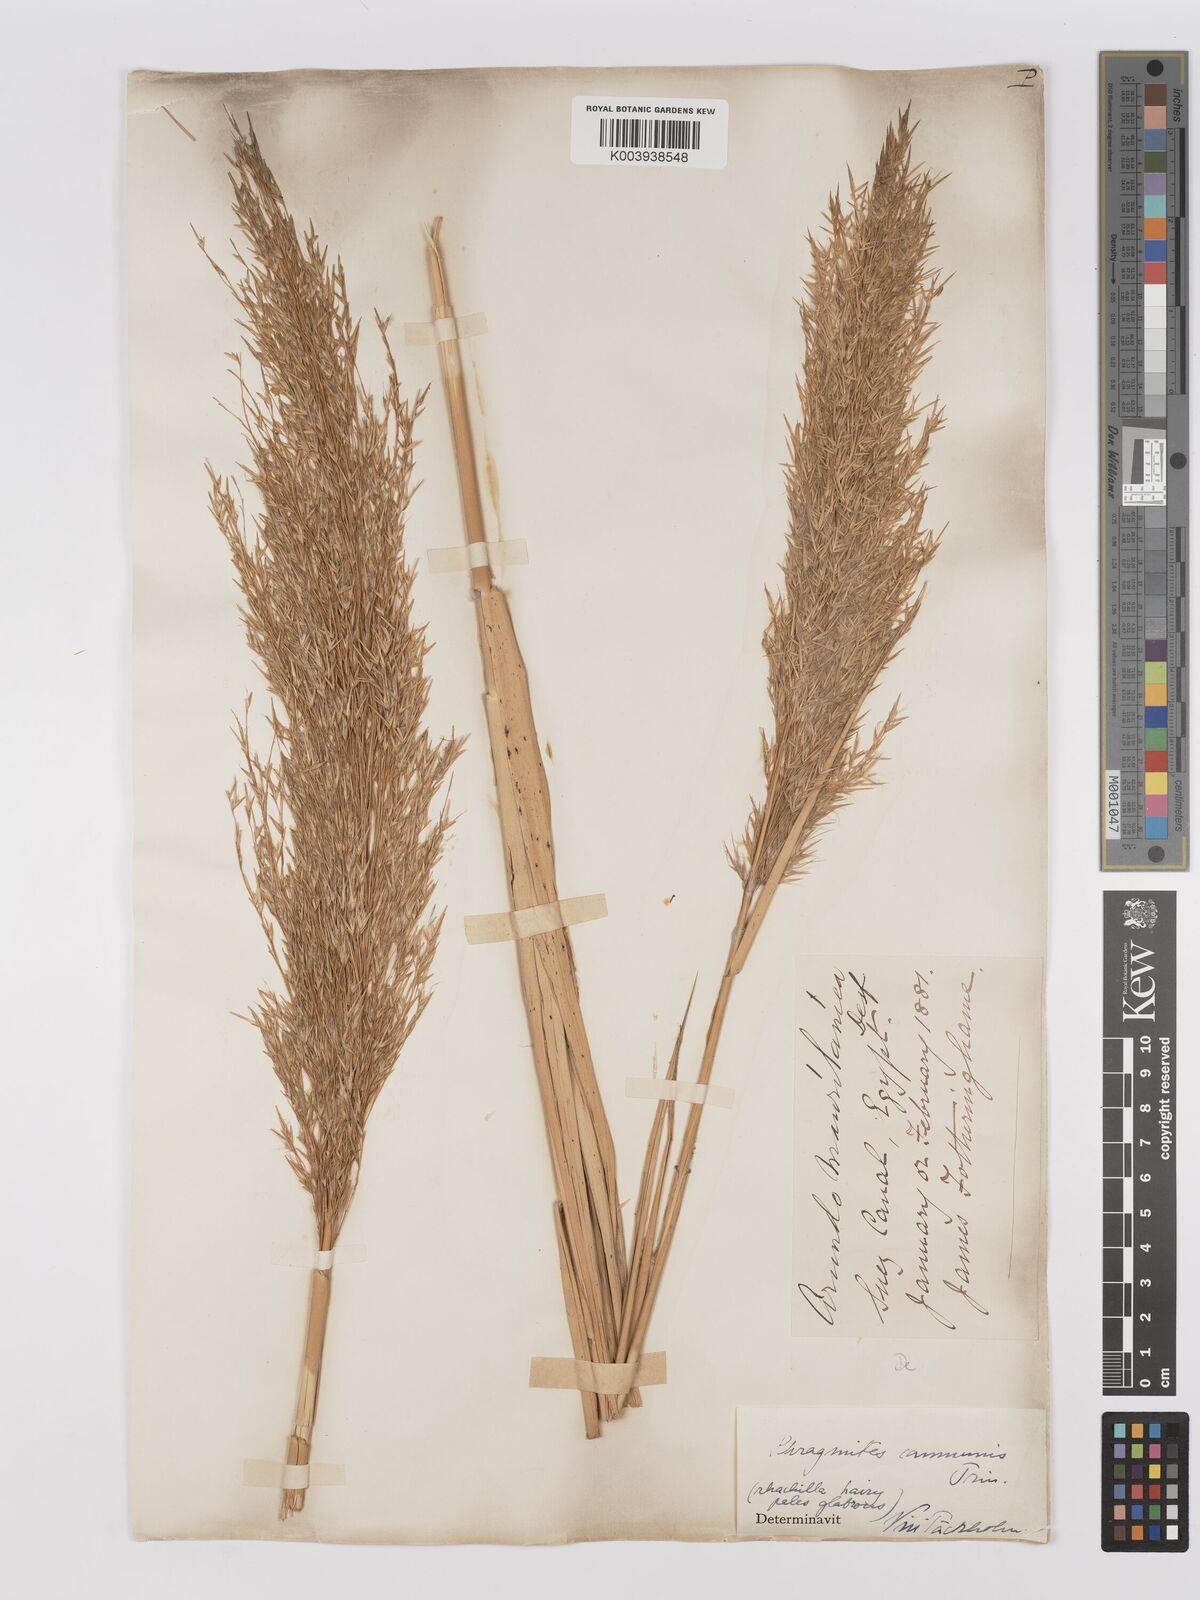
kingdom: Plantae
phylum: Tracheophyta
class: Liliopsida
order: Poales
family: Poaceae
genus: Phragmites
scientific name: Phragmites australis
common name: Common reed
